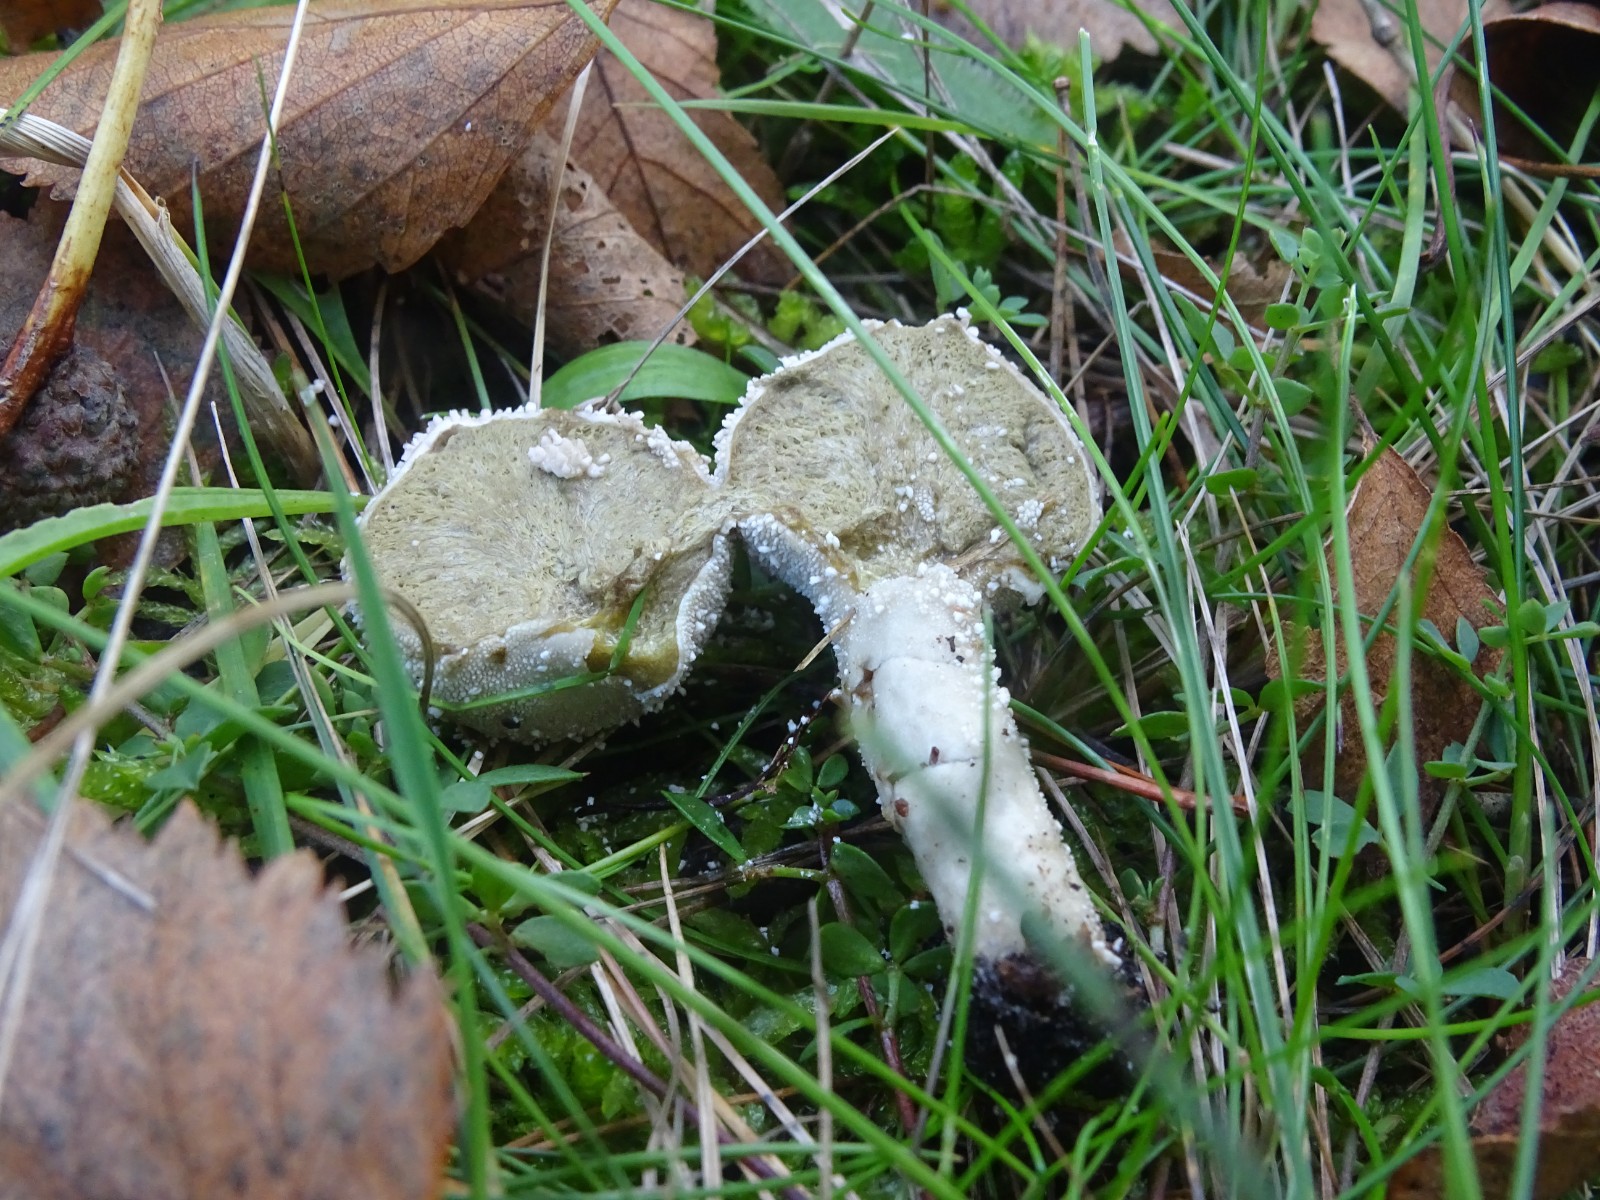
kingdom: Fungi
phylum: Basidiomycota
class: Agaricomycetes
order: Agaricales
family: Lycoperdaceae
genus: Lycoperdon
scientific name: Lycoperdon perlatum
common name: krystal-støvbold
